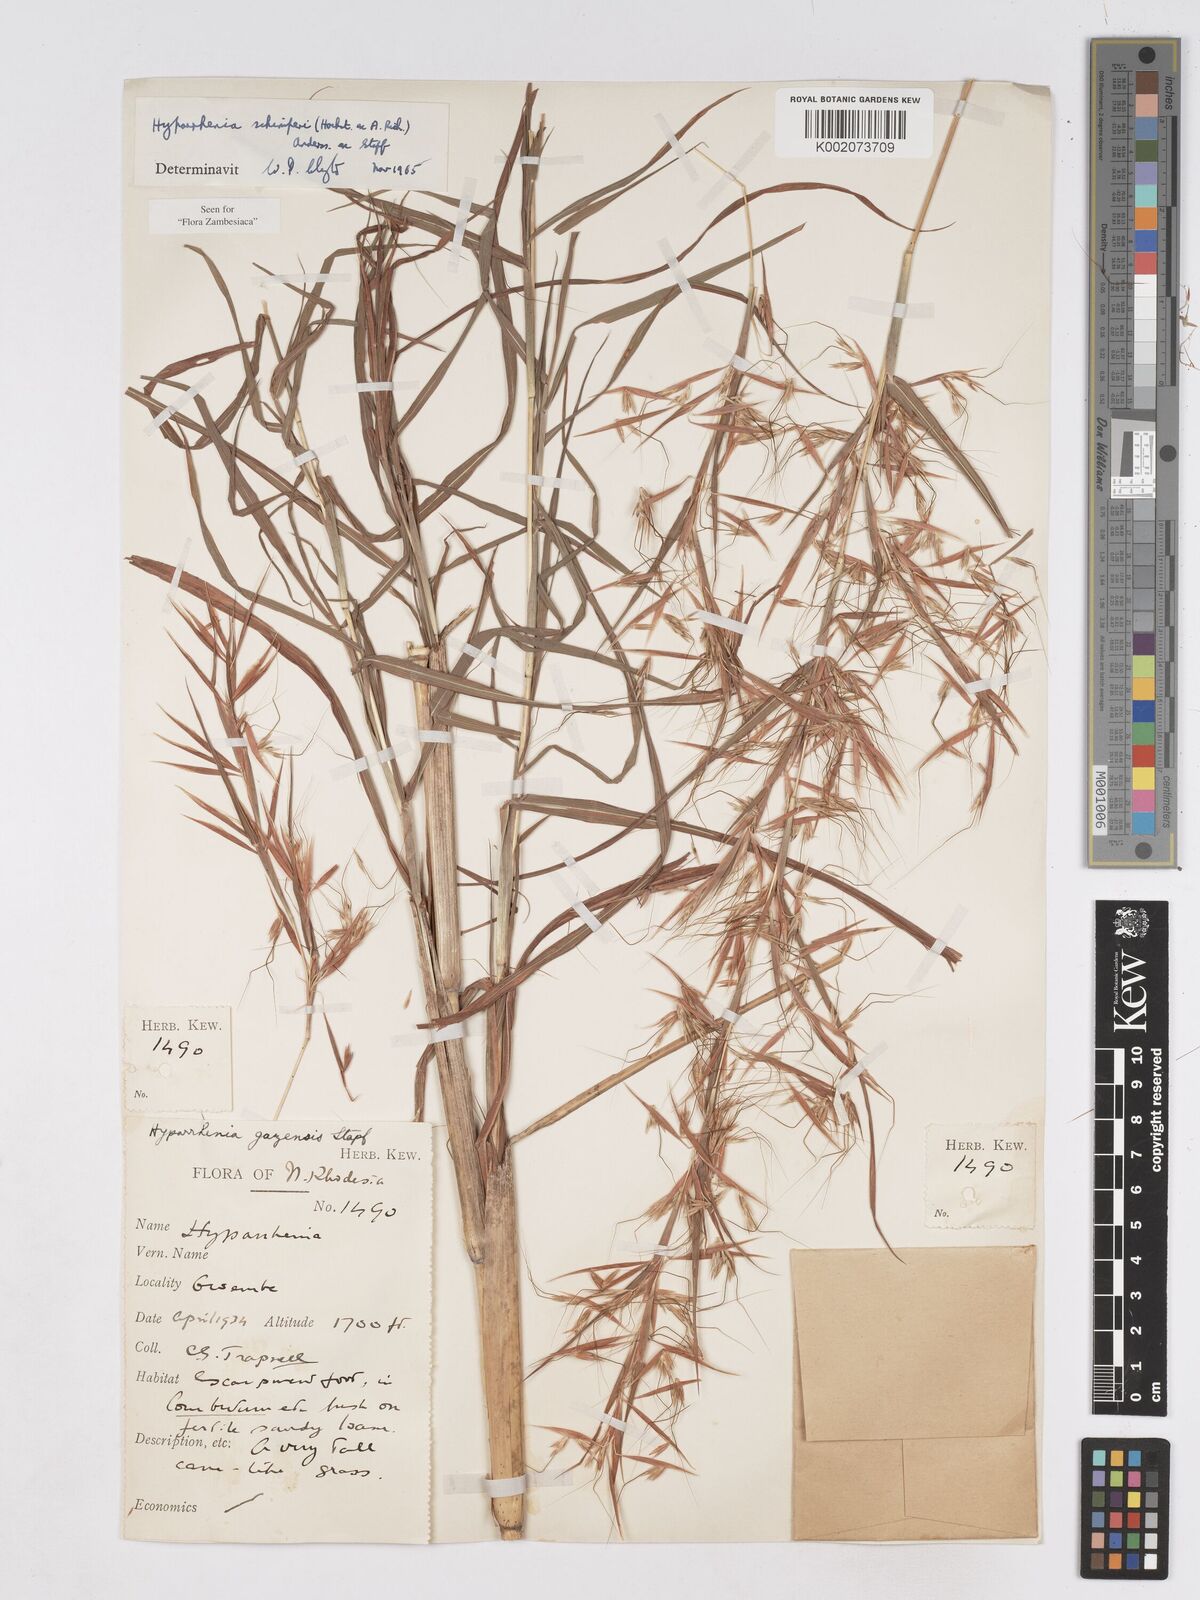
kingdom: Plantae
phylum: Tracheophyta
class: Liliopsida
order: Poales
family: Poaceae
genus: Hyparrhenia
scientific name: Hyparrhenia schimperi
